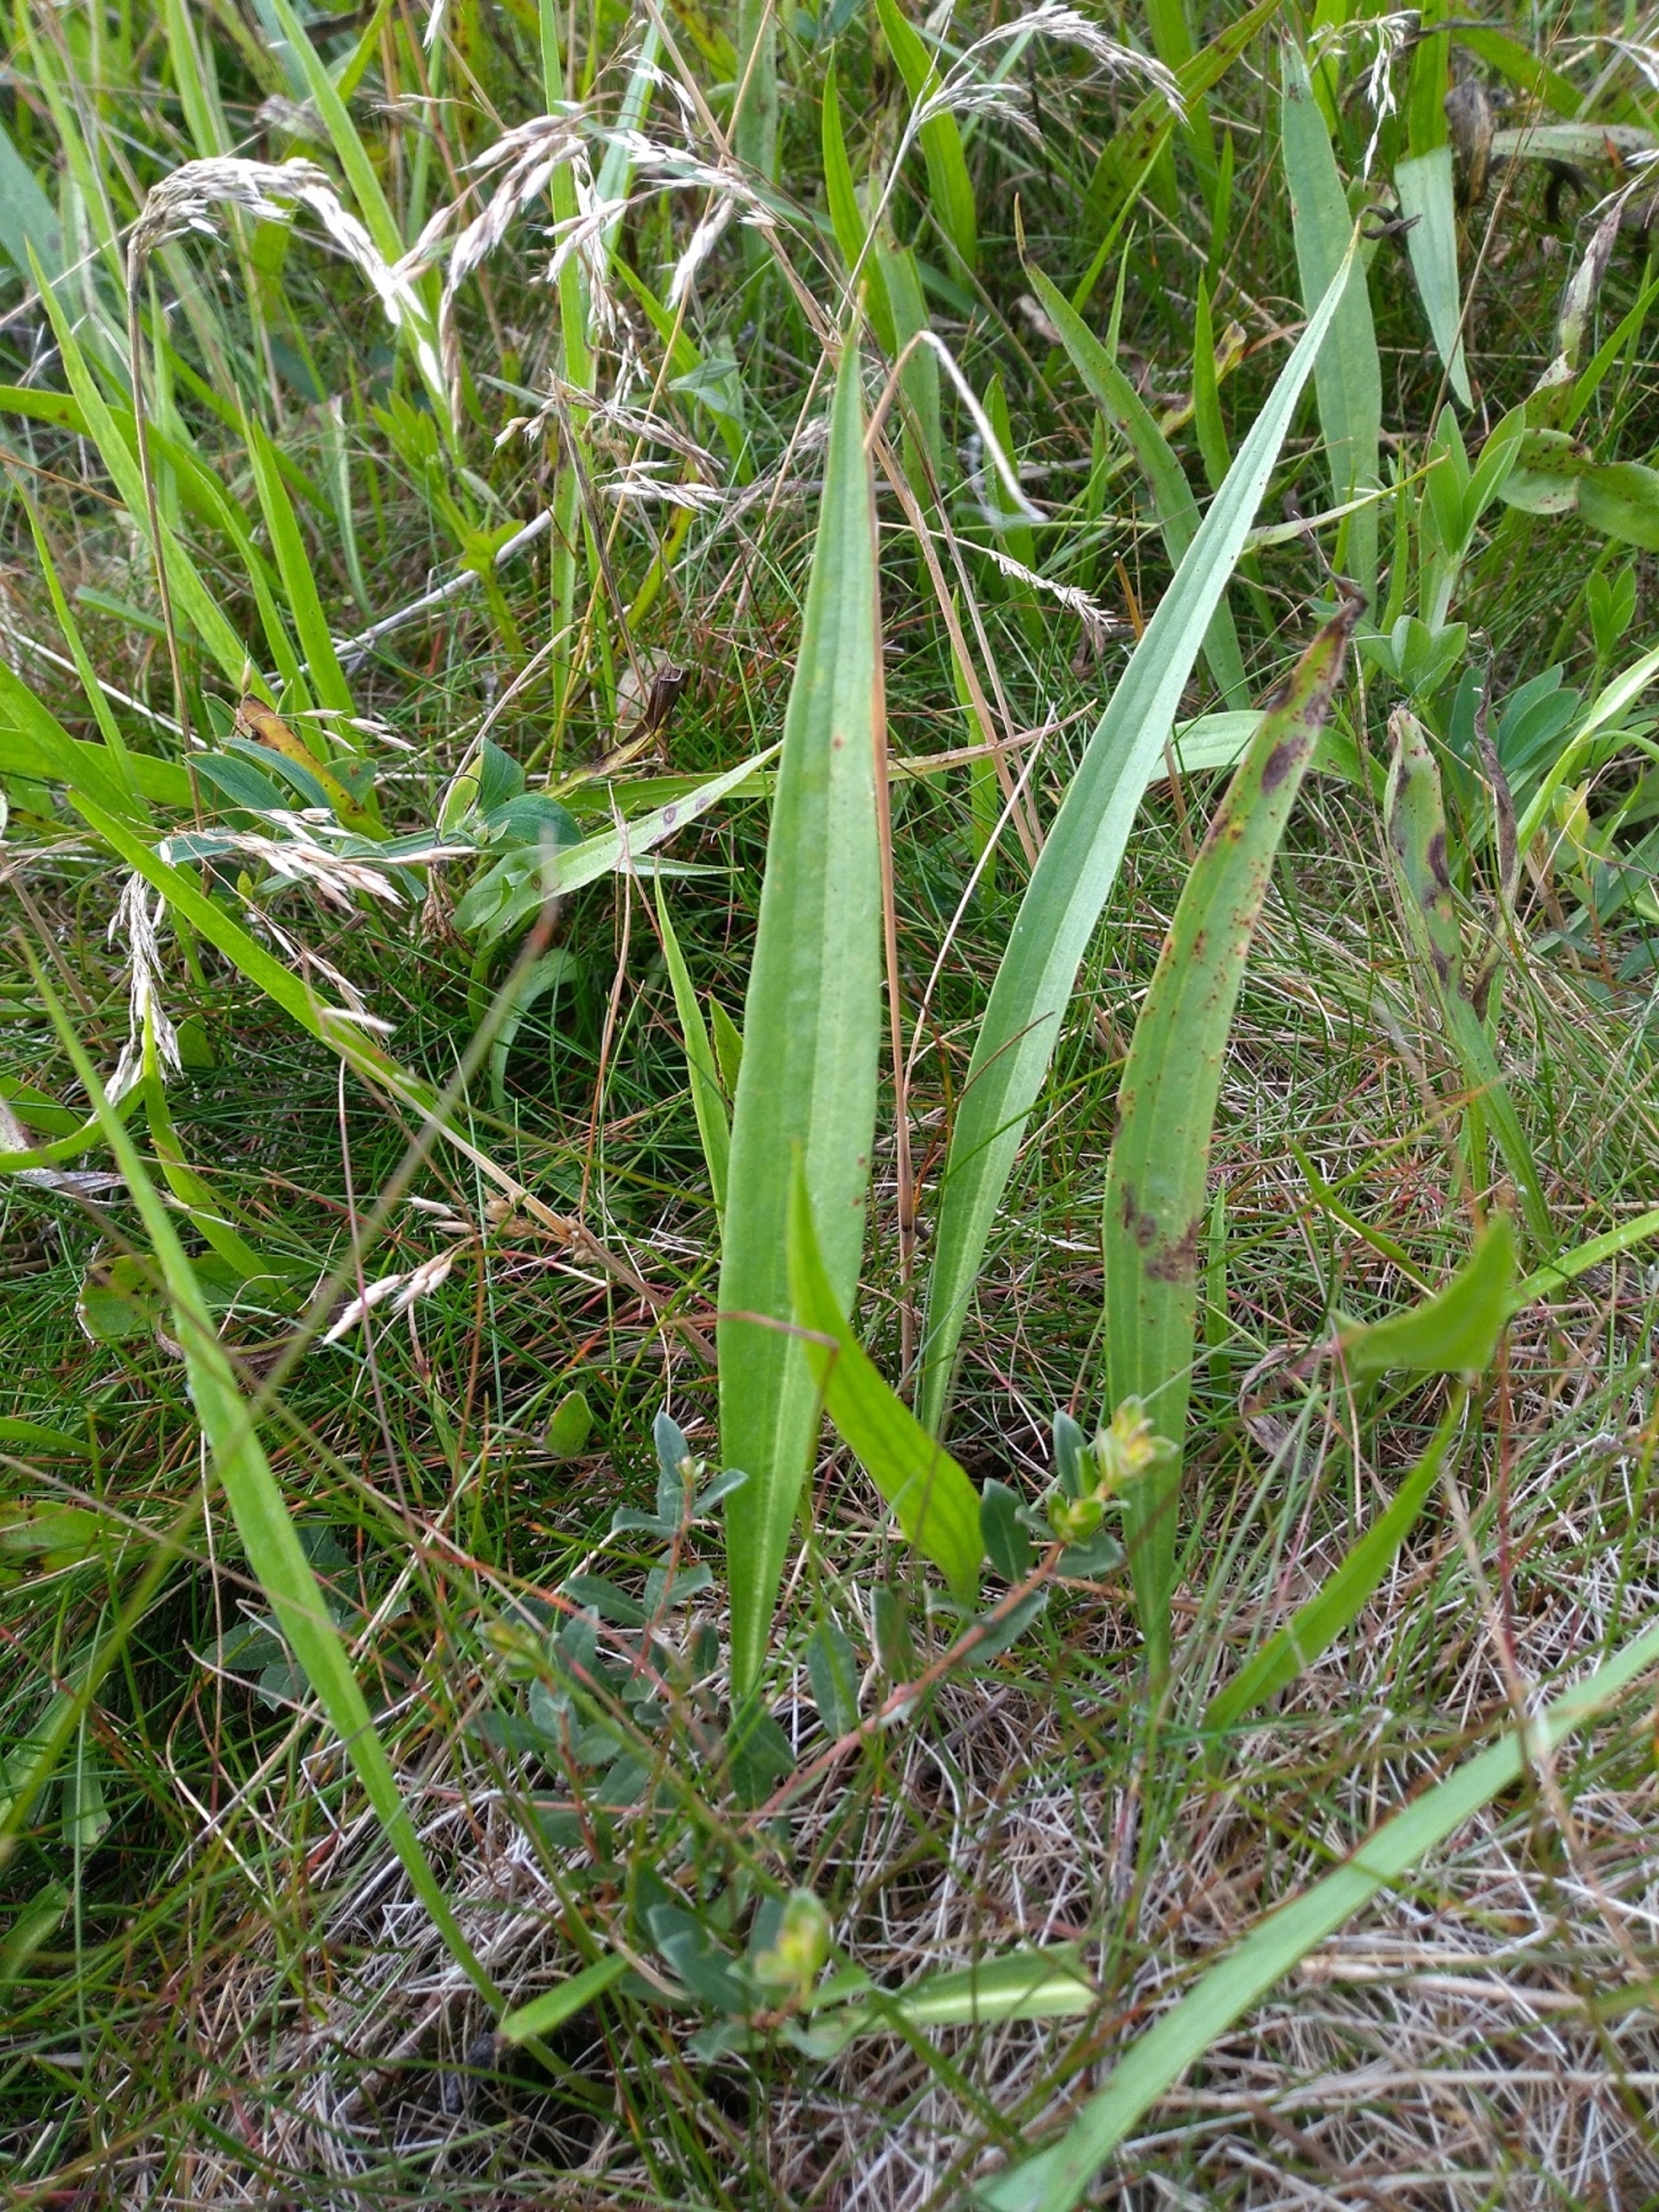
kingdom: Plantae
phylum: Tracheophyta
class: Magnoliopsida
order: Asterales
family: Asteraceae
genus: Scorzonera
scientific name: Scorzonera humilis
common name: Lav skorsoner
